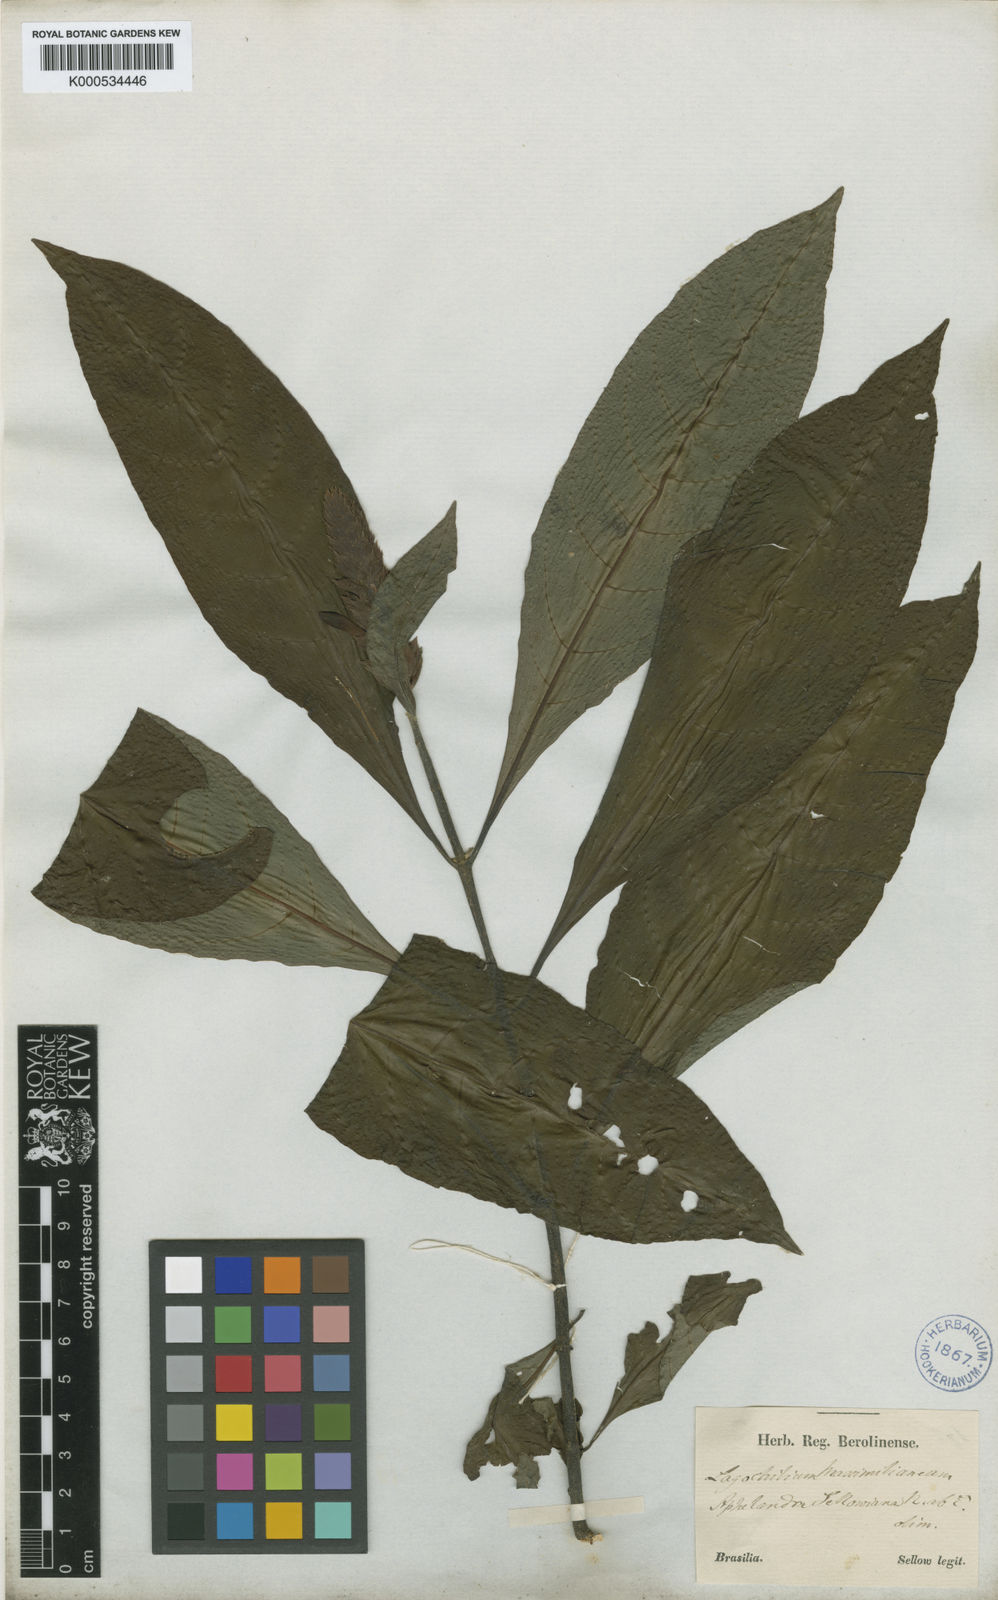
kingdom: Plantae
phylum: Tracheophyta
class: Magnoliopsida
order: Lamiales
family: Acanthaceae
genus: Aphelandra
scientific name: Aphelandra
